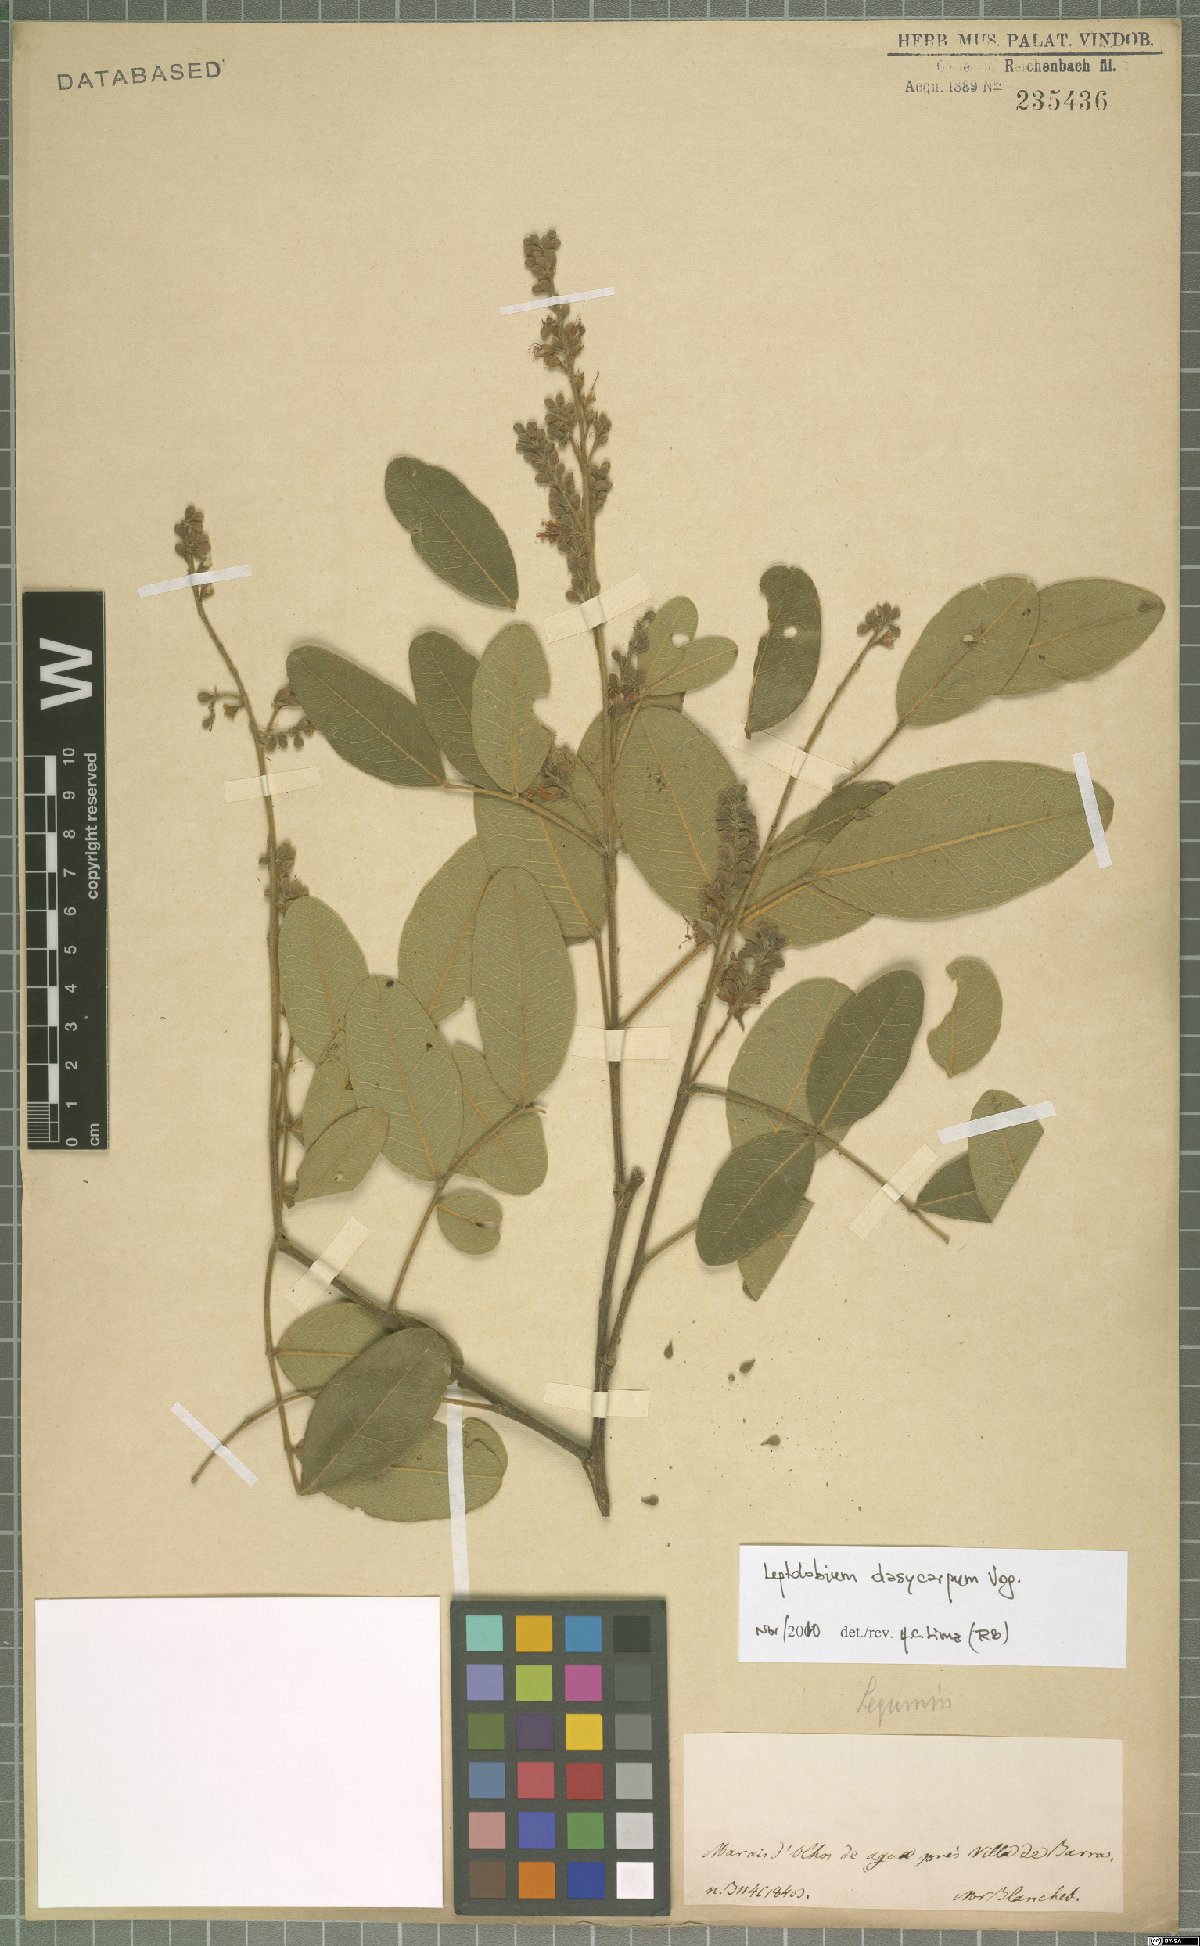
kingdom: Plantae
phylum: Tracheophyta
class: Magnoliopsida
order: Fabales
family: Fabaceae
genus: Leptolobium
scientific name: Leptolobium dasycarpum
